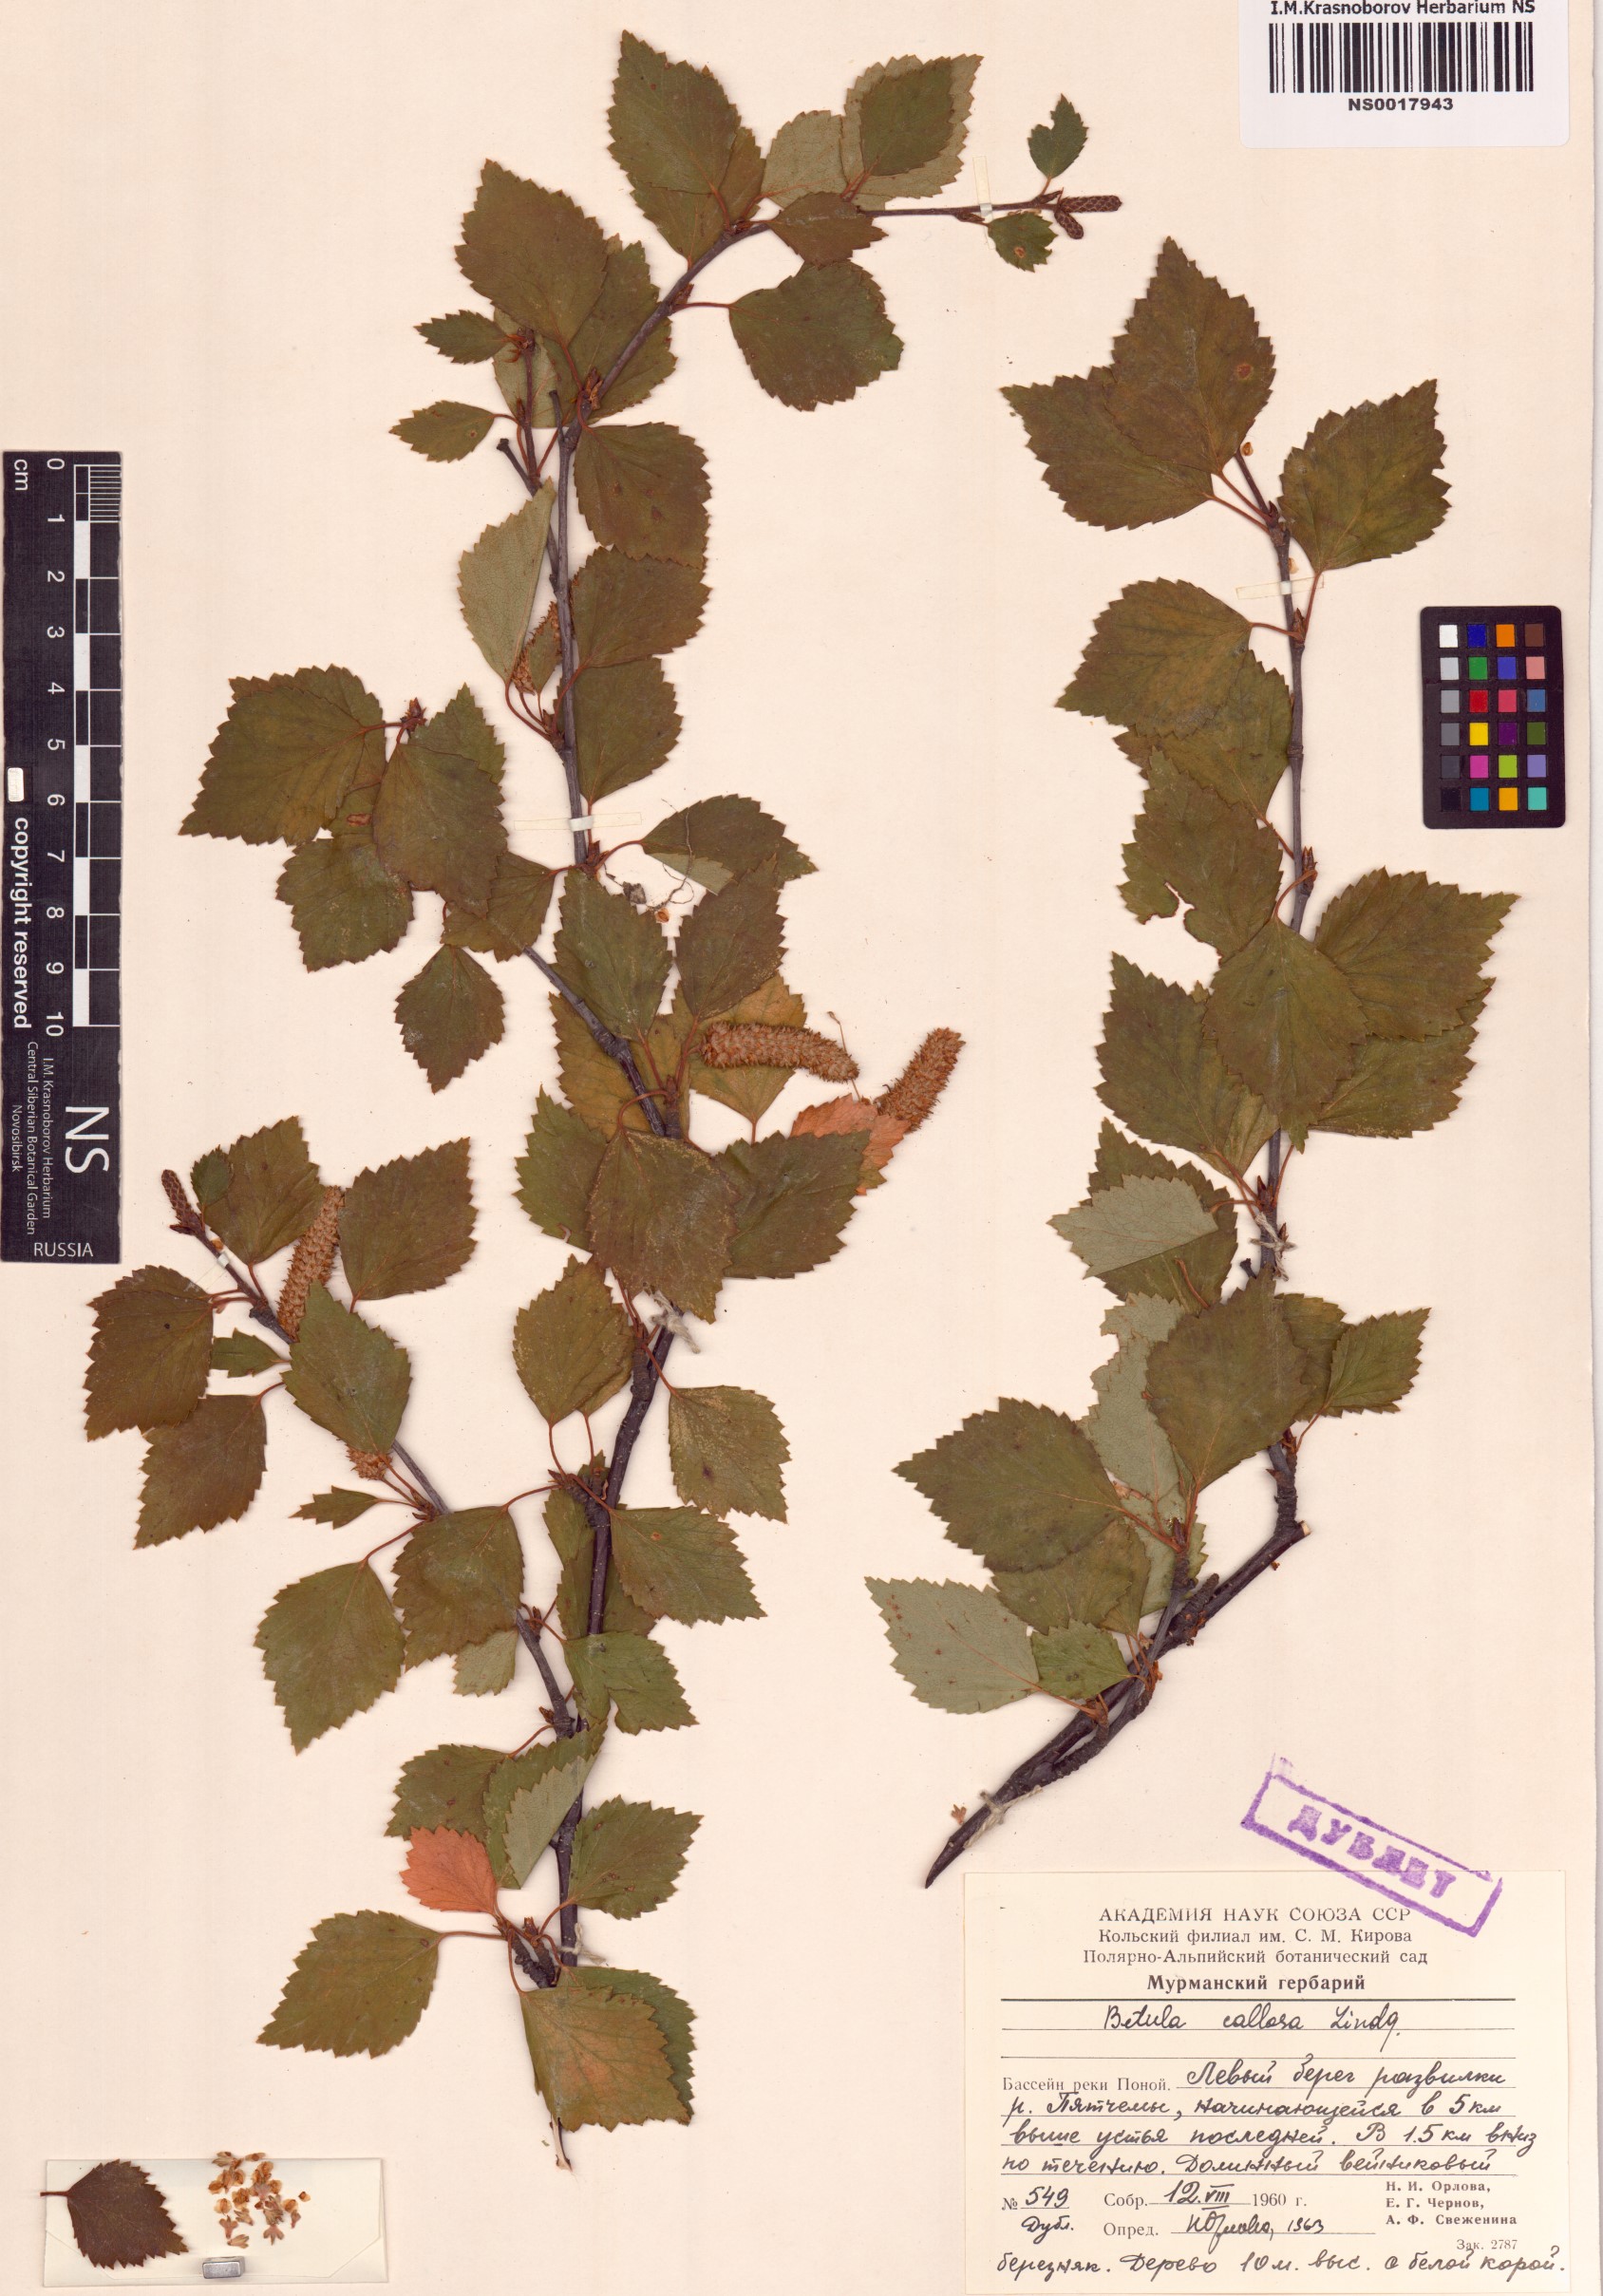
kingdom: Plantae
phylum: Tracheophyta
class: Magnoliopsida
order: Fagales
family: Betulaceae
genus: Betula
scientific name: Betula pubescens
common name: Downy birch
